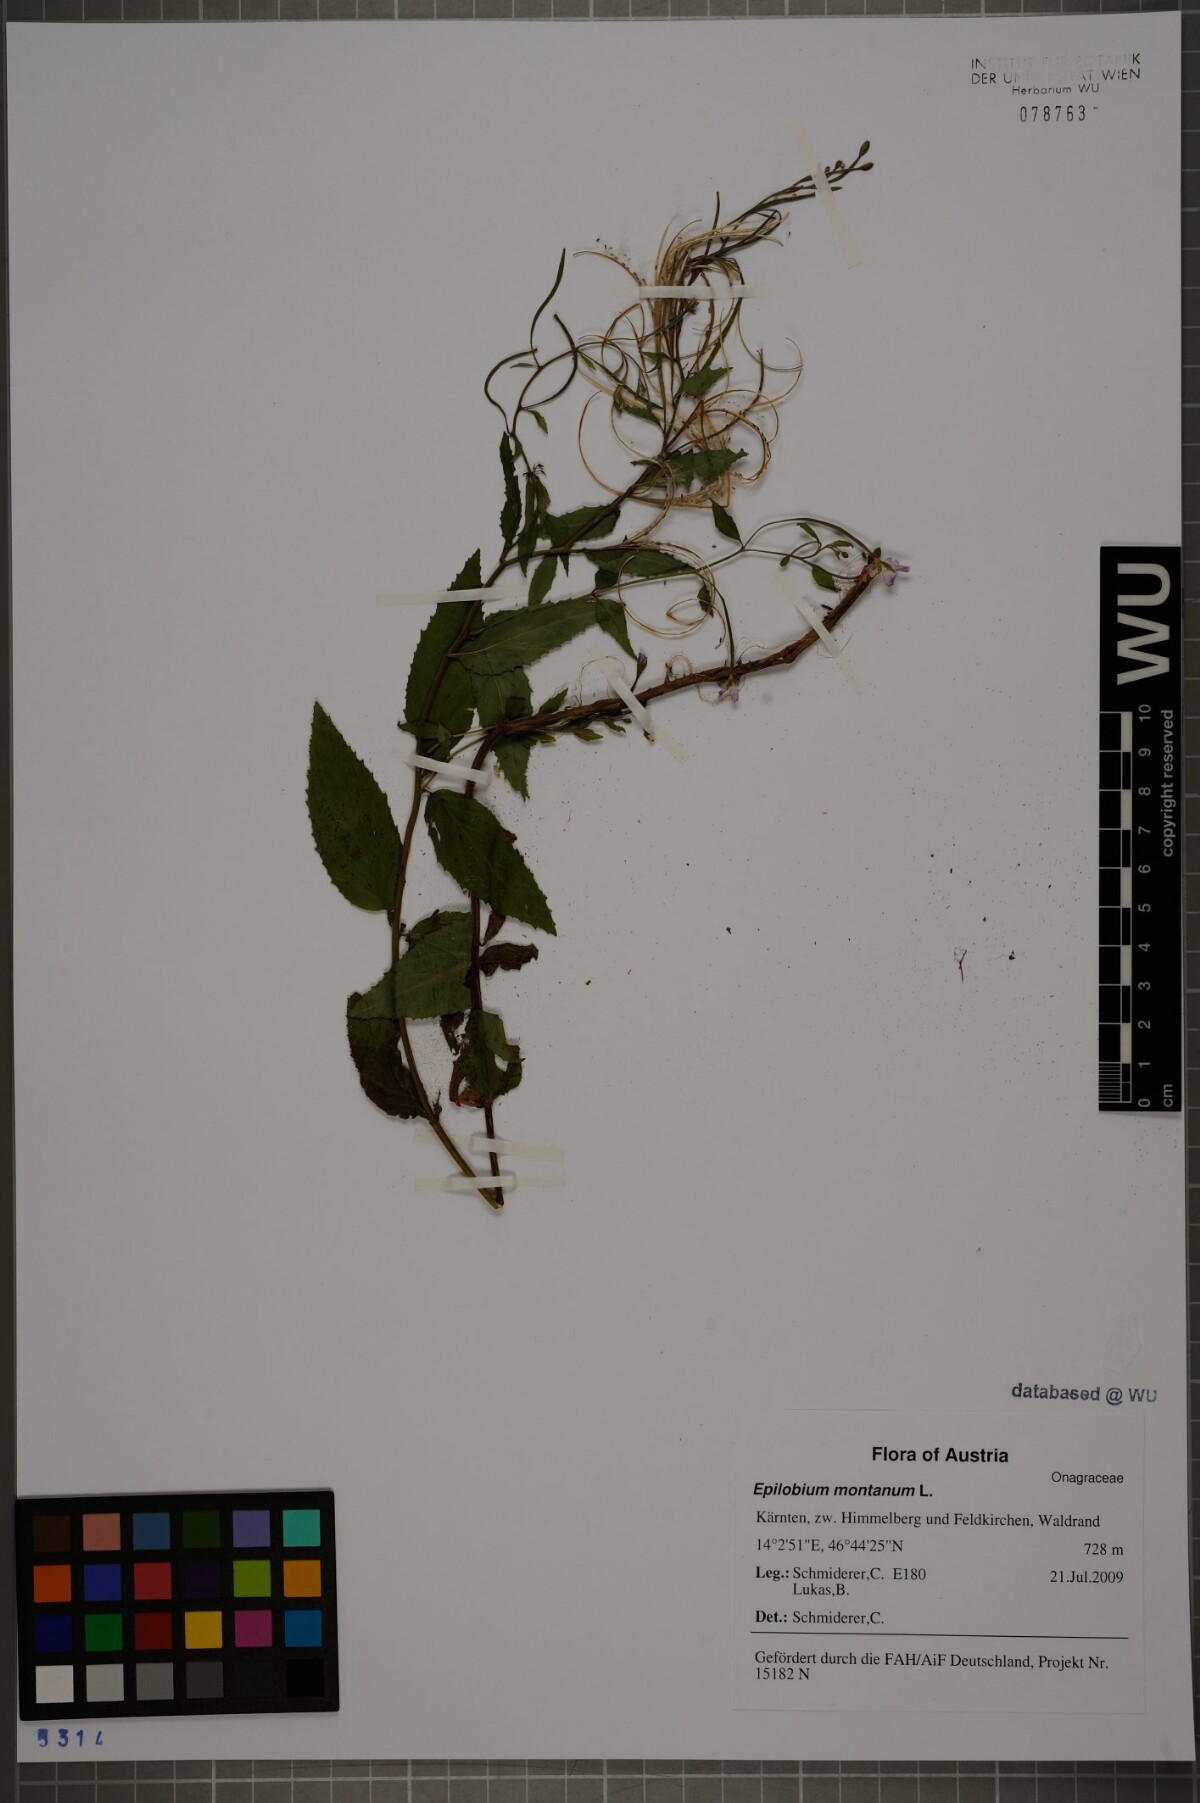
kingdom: Plantae
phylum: Tracheophyta
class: Magnoliopsida
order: Myrtales
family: Onagraceae
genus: Epilobium
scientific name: Epilobium montanum
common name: Broad-leaved willowherb
